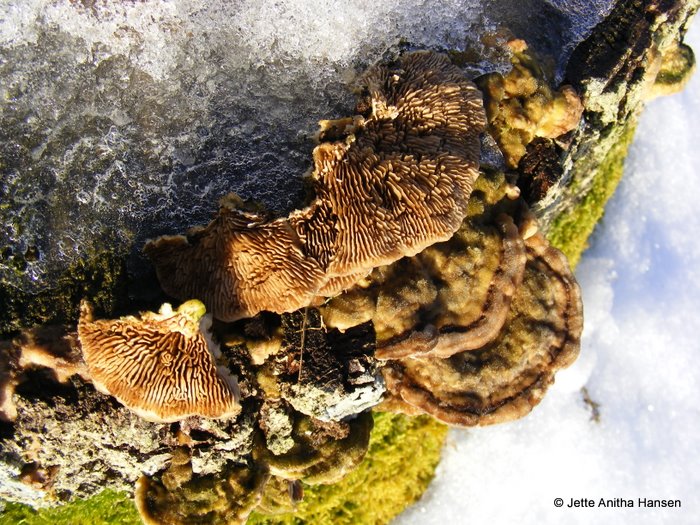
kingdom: Fungi
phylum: Basidiomycota
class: Agaricomycetes
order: Polyporales
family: Polyporaceae
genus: Lenzites
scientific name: Lenzites betulinus
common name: birke-læderporesvamp
